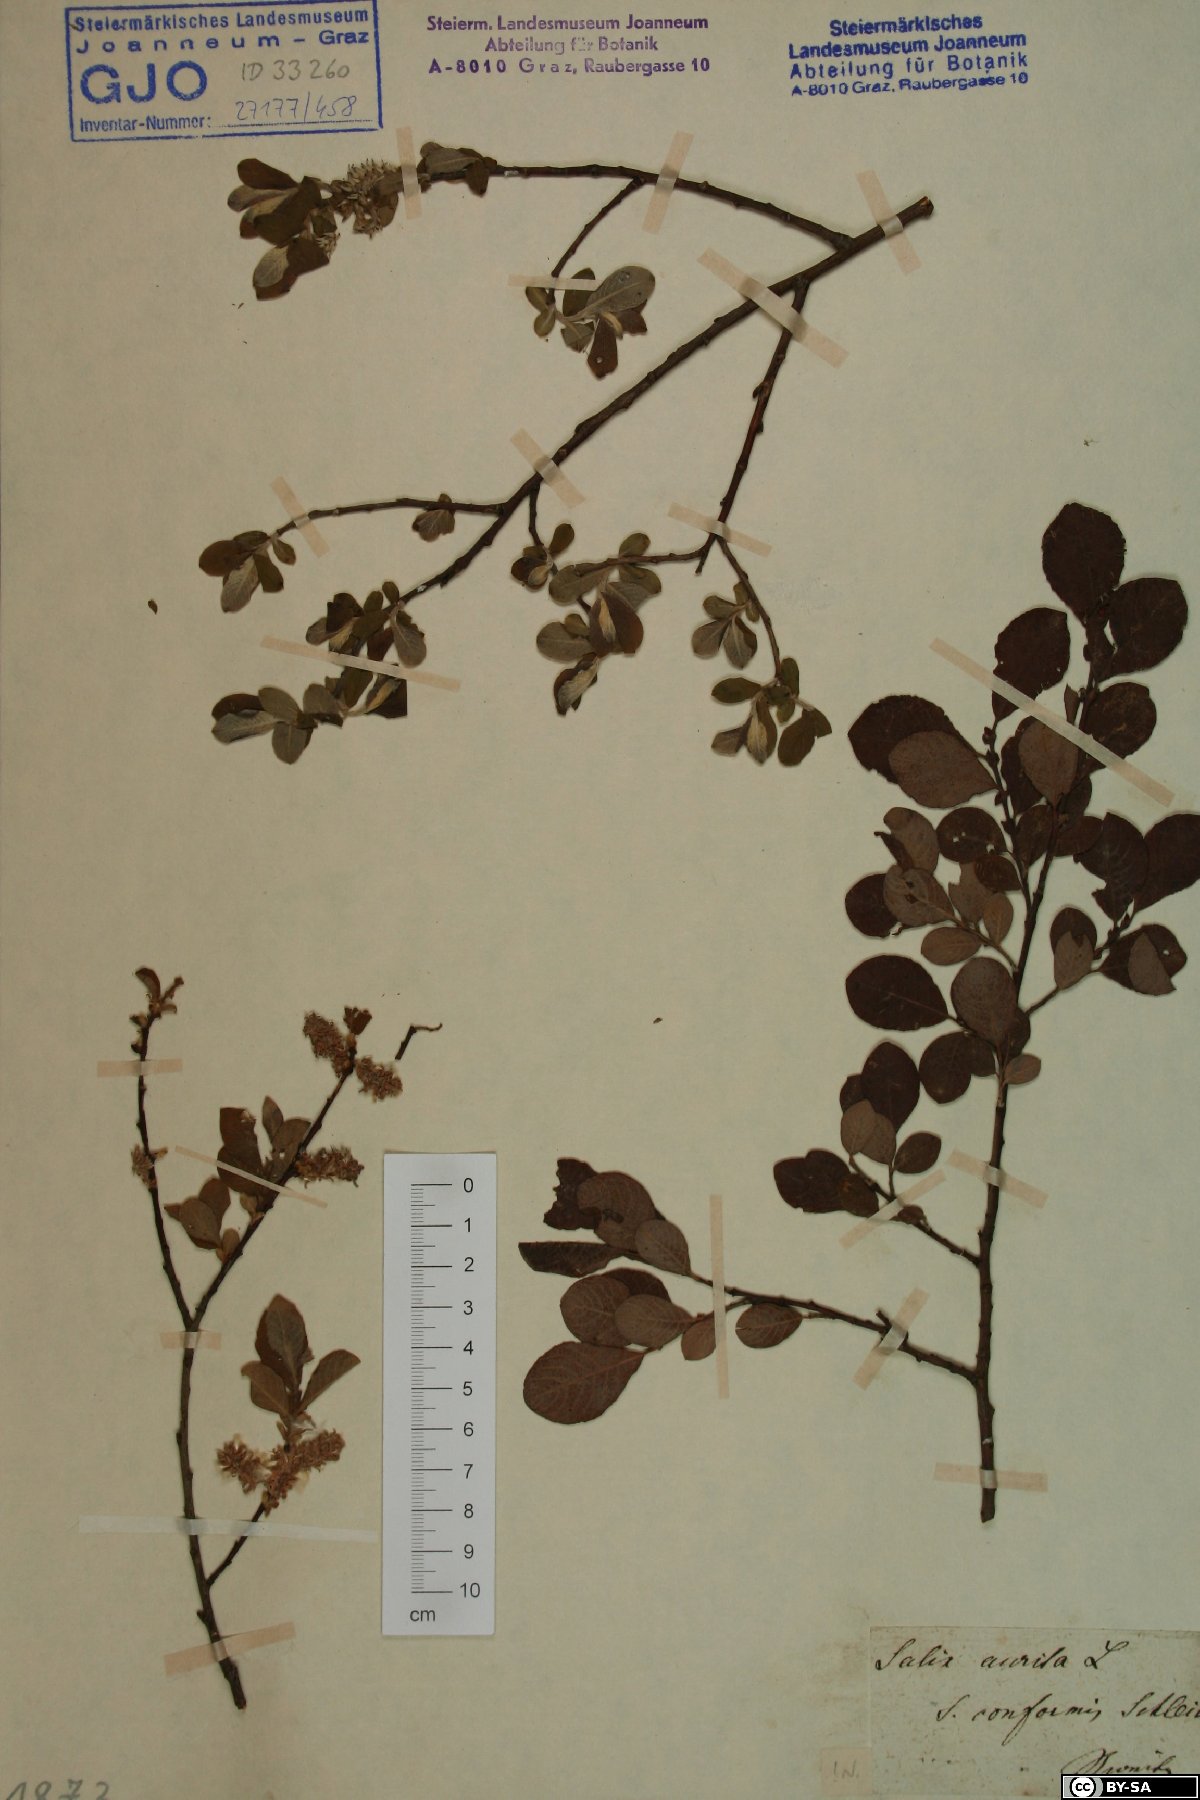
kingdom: Plantae
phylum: Tracheophyta
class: Magnoliopsida
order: Malpighiales
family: Salicaceae
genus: Salix
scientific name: Salix aurita
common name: Eared willow
